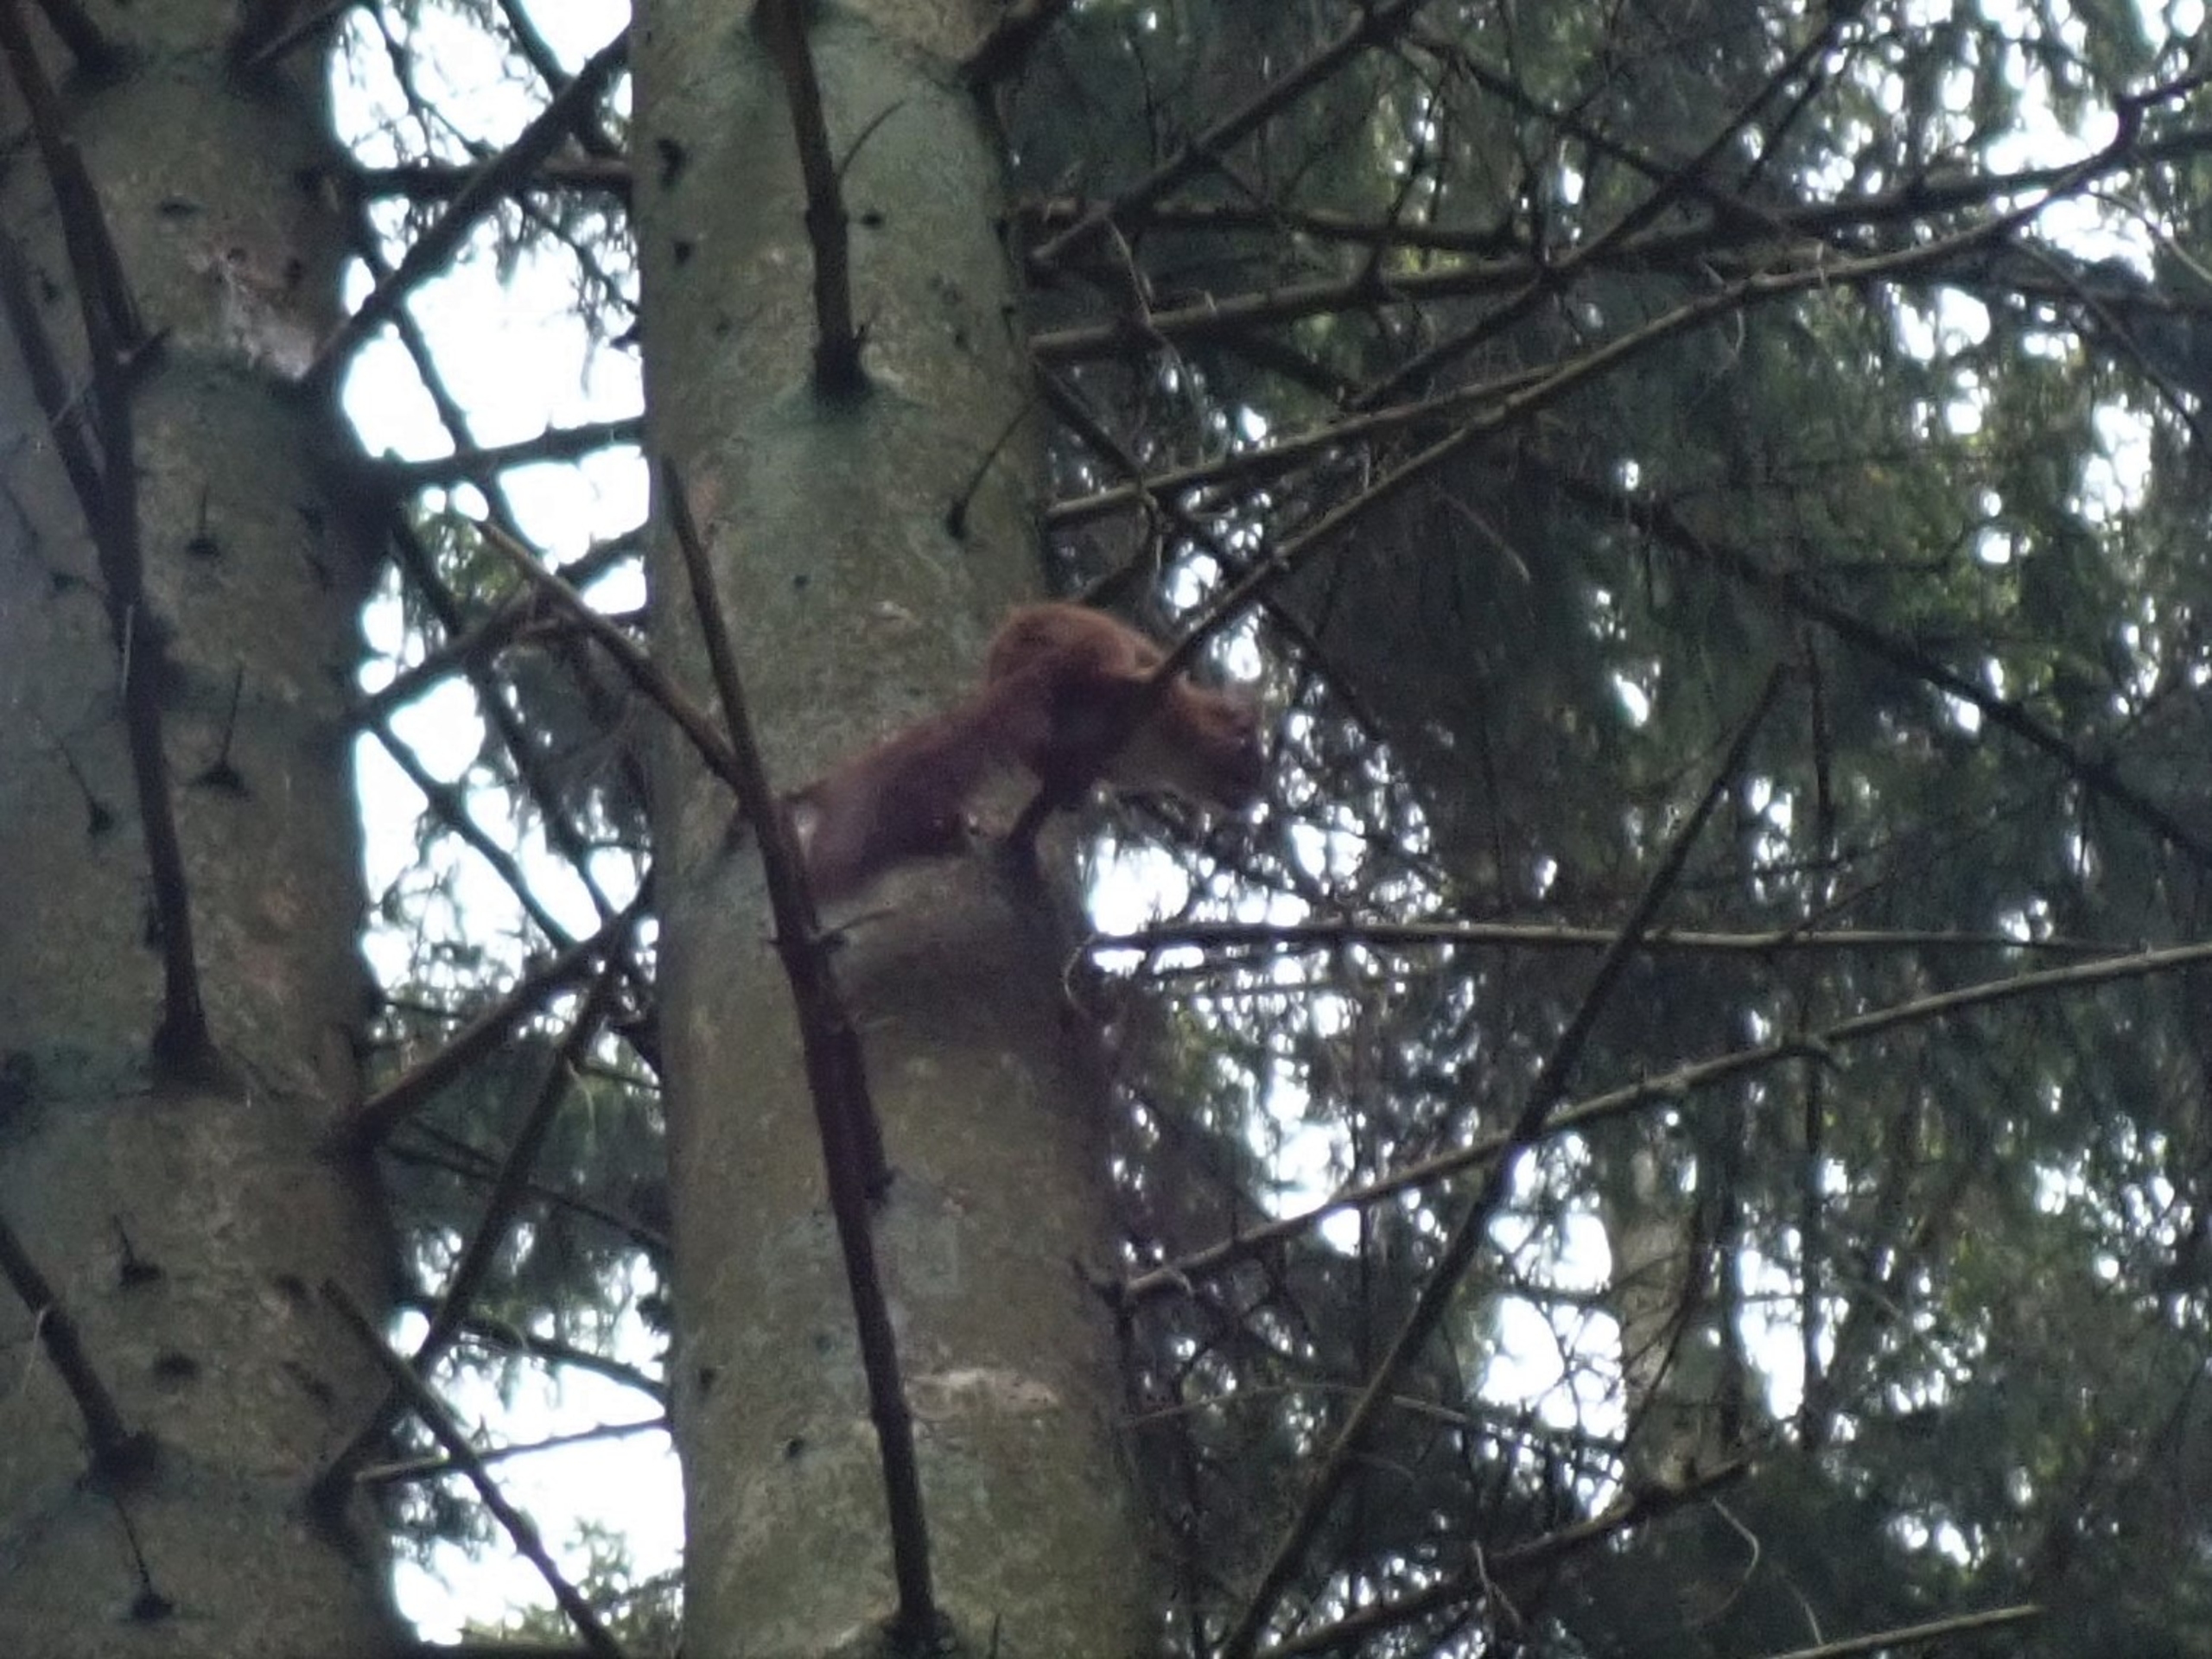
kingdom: Animalia
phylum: Chordata
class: Mammalia
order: Rodentia
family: Sciuridae
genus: Sciurus
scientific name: Sciurus vulgaris
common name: Egern
